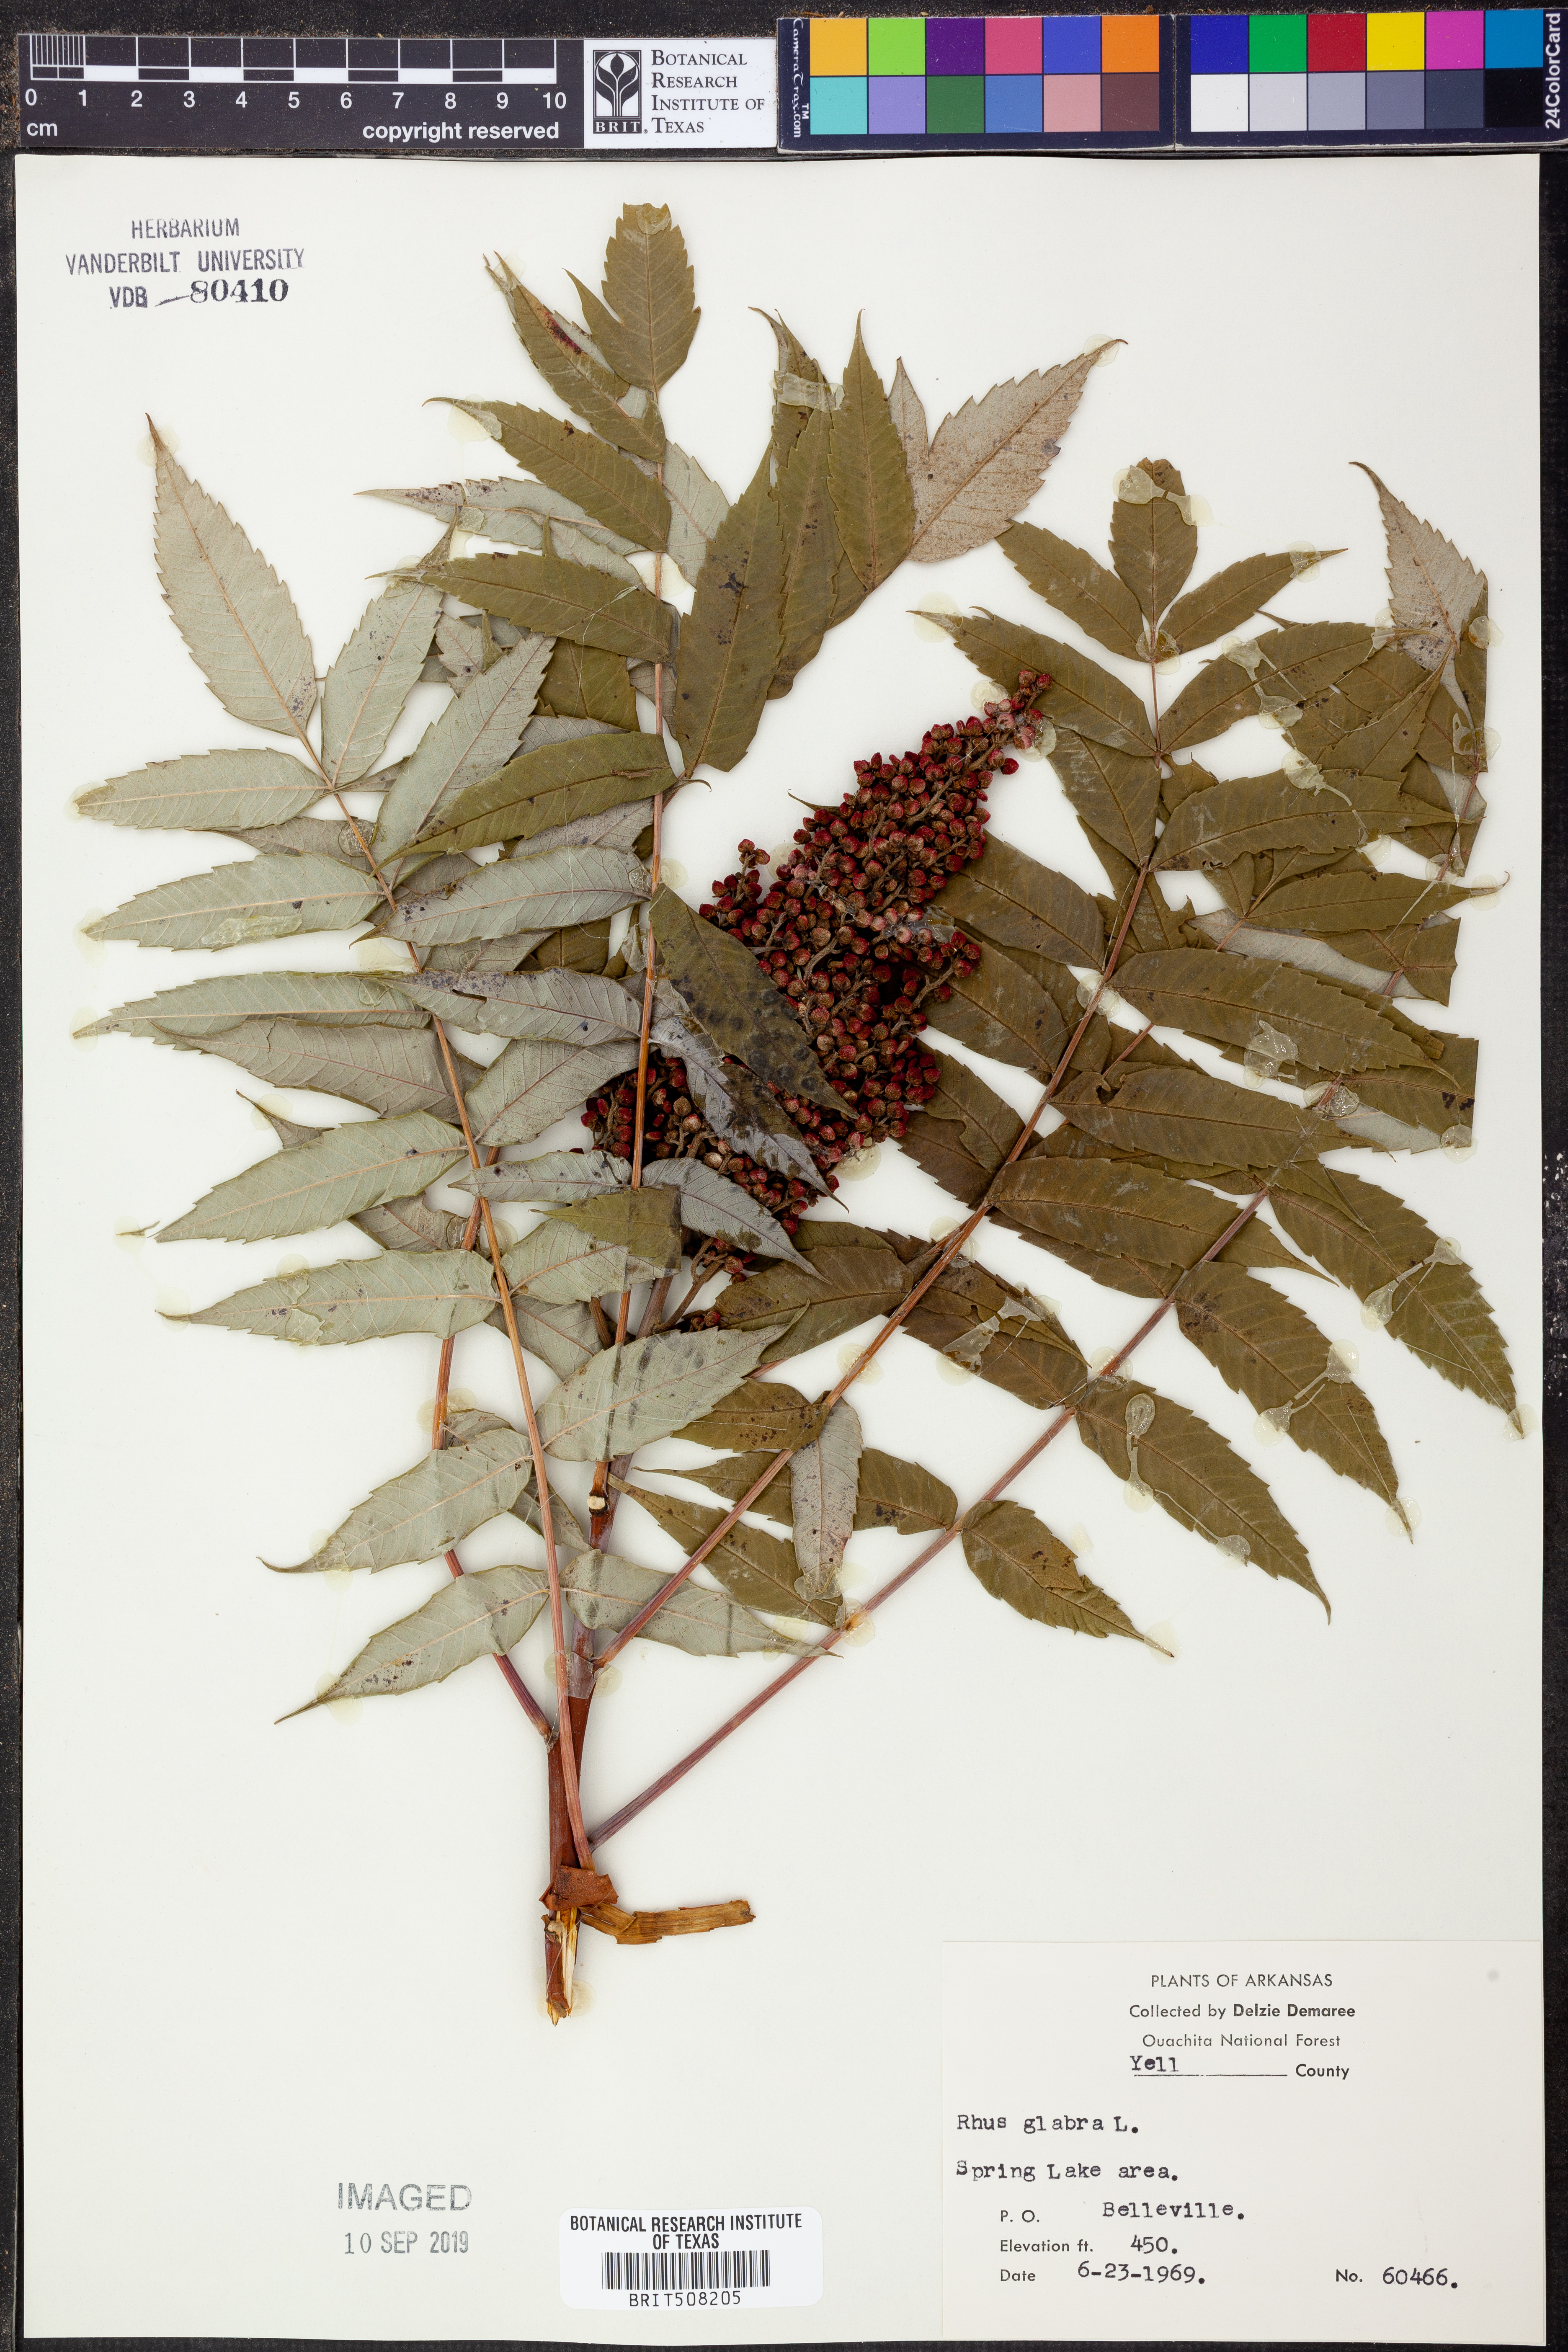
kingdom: Plantae
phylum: Tracheophyta
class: Magnoliopsida
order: Sapindales
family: Anacardiaceae
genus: Rhus
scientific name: Rhus glabra
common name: Scarlet sumac
